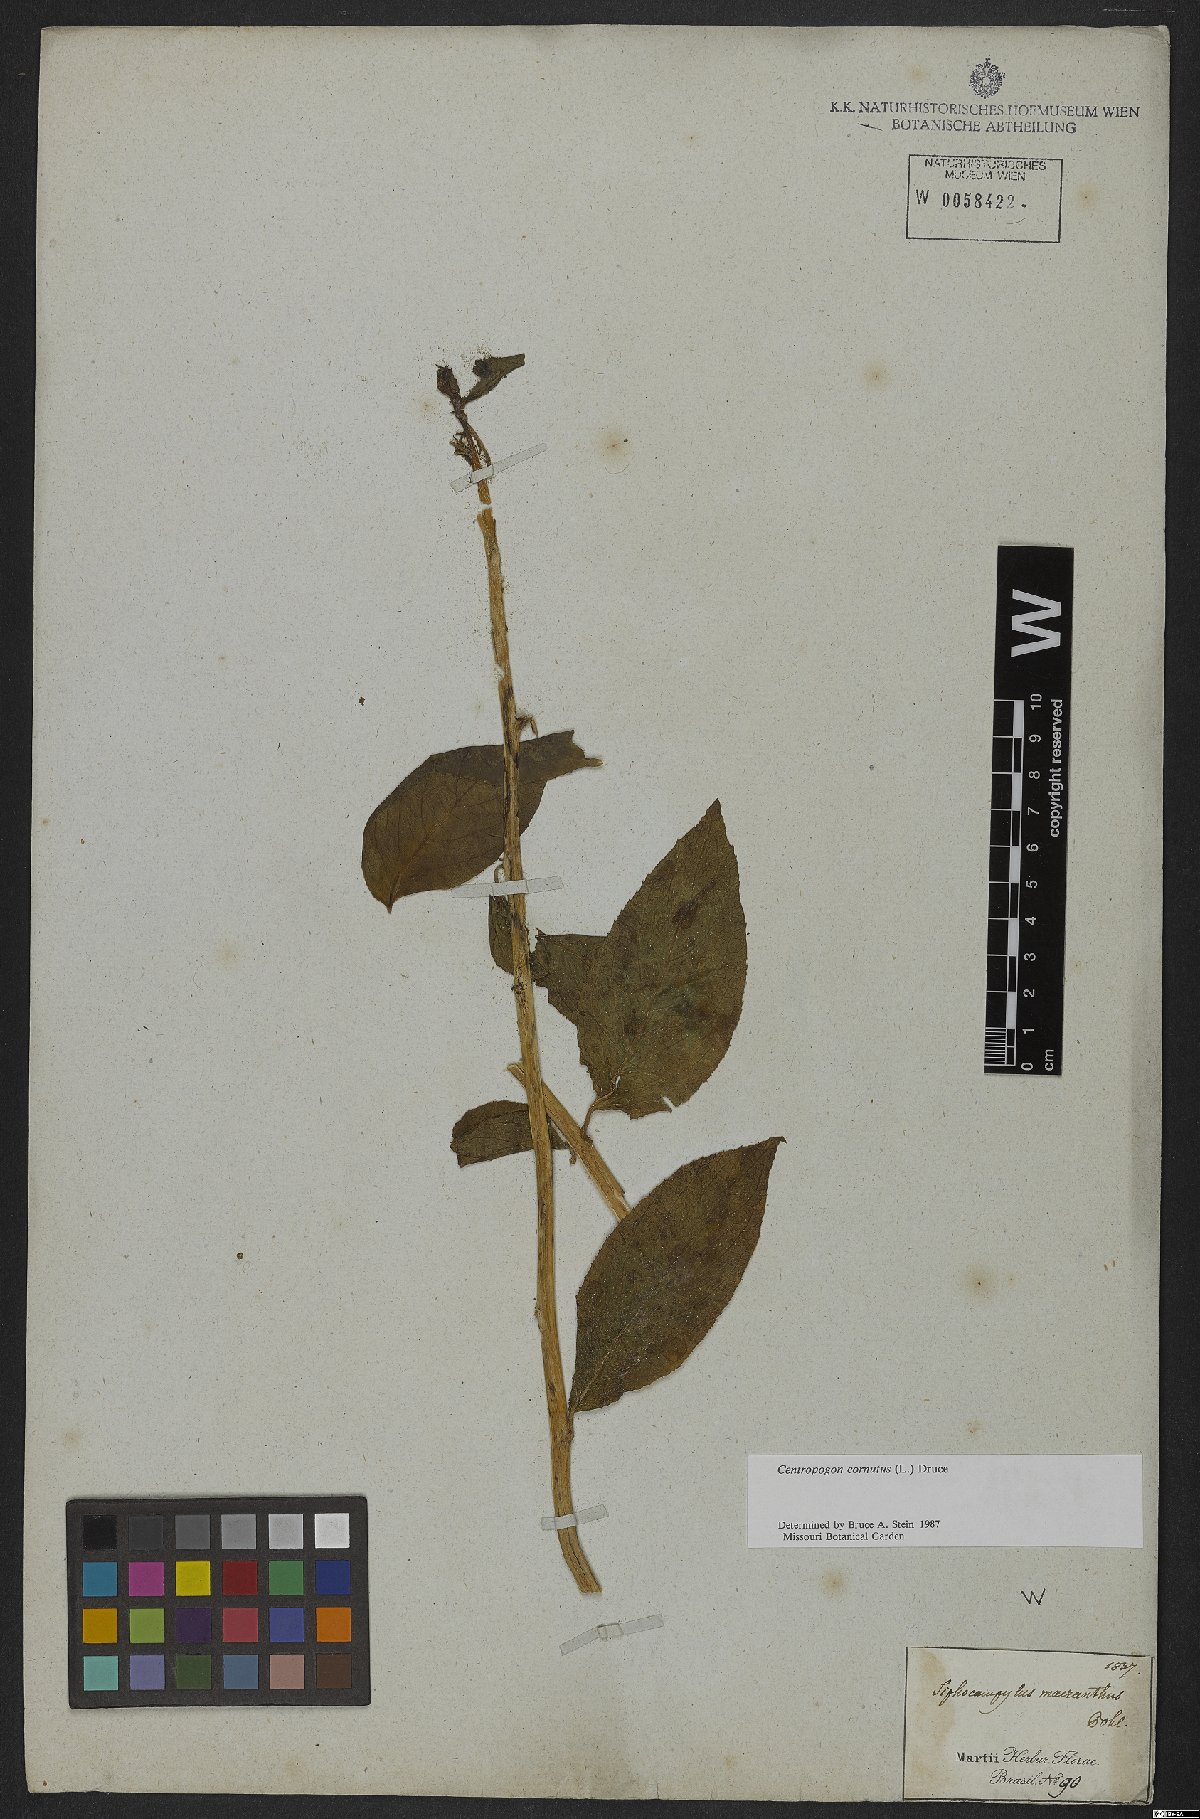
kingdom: Plantae
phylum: Tracheophyta
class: Magnoliopsida
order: Asterales
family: Campanulaceae
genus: Centropogon
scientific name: Centropogon cornutus
